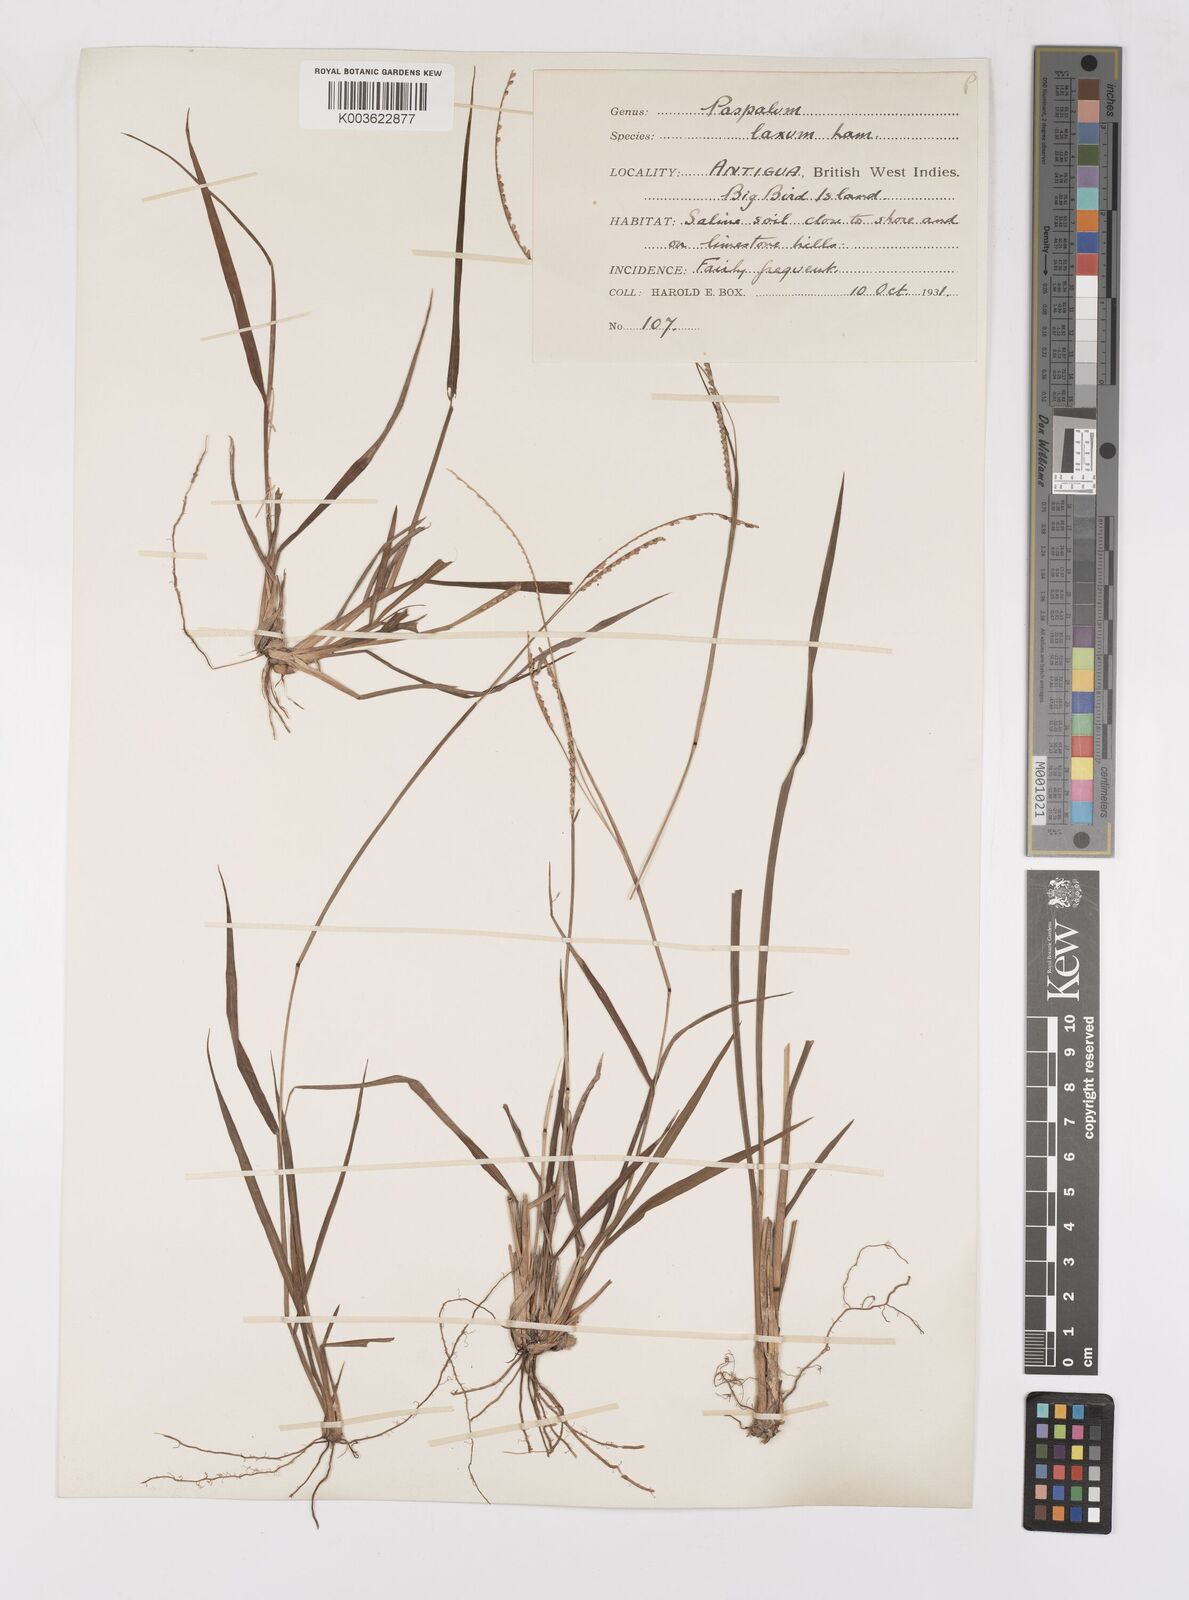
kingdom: Plantae
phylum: Tracheophyta
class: Liliopsida
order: Poales
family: Poaceae
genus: Paspalum
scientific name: Paspalum laxum
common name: Coconut paspalum
